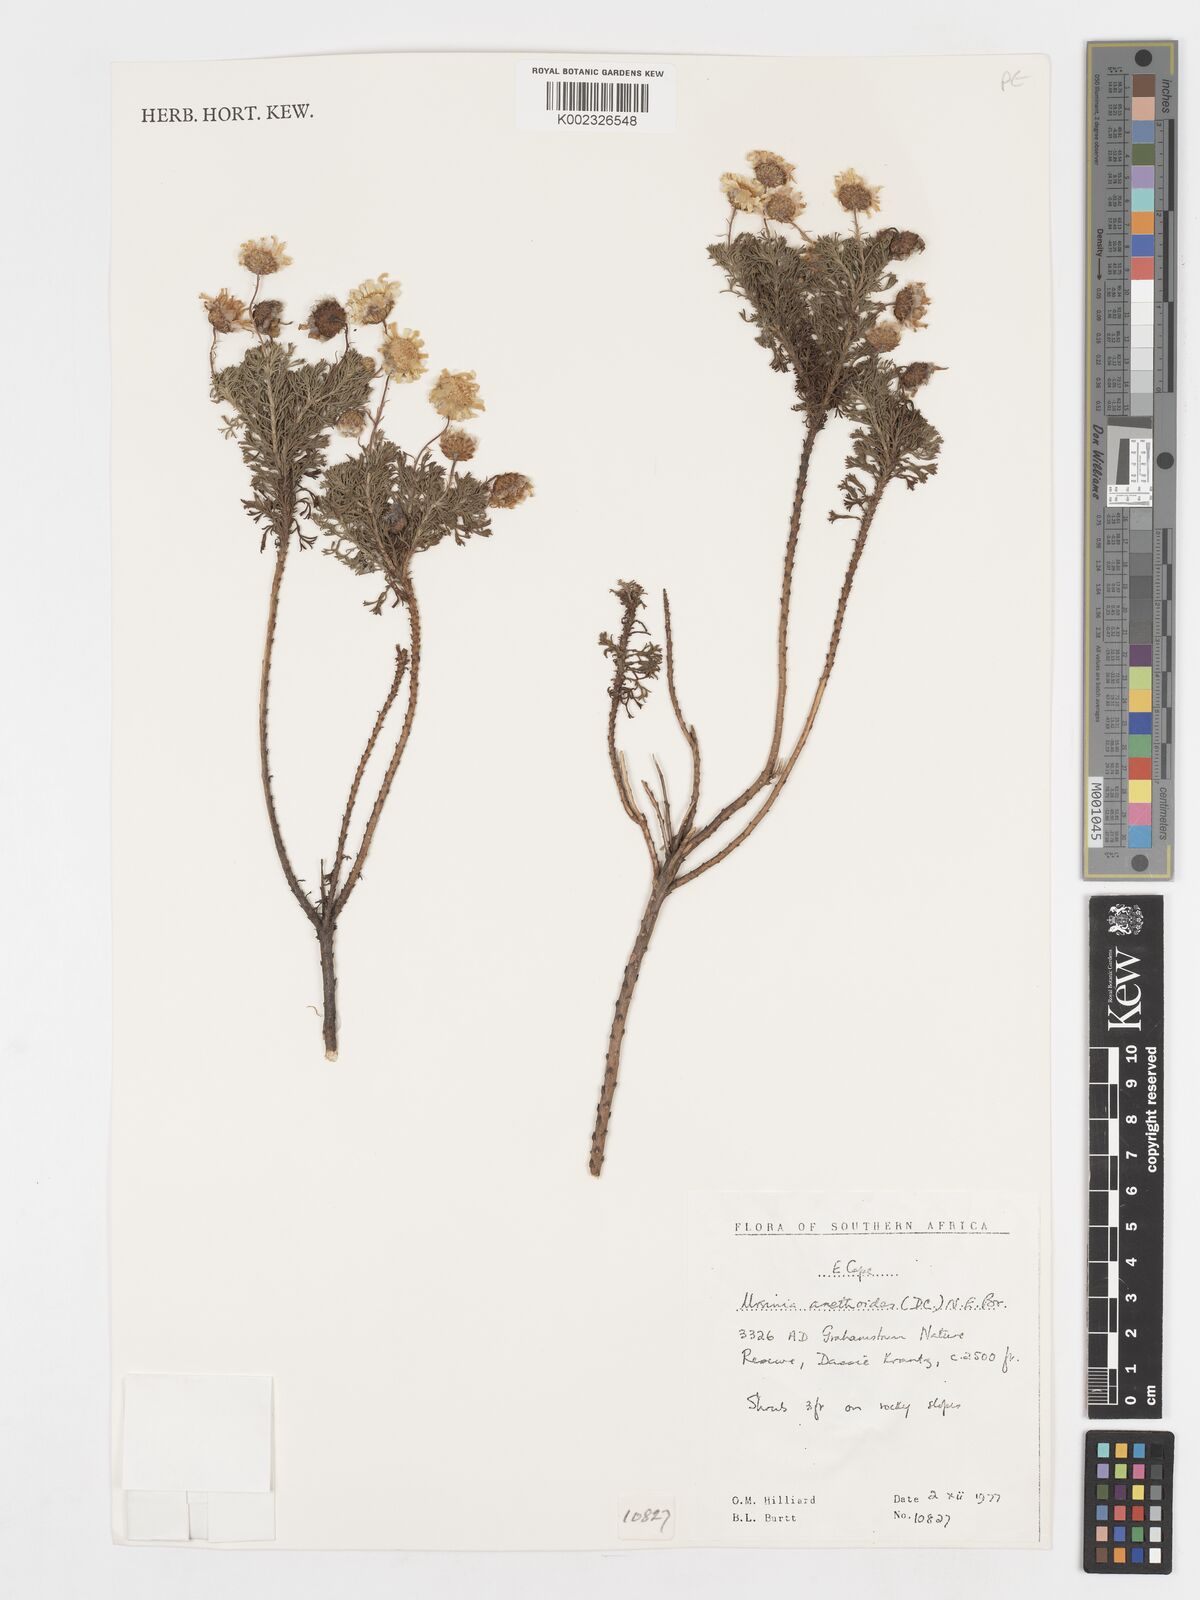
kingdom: Plantae
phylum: Tracheophyta
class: Magnoliopsida
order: Asterales
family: Asteraceae
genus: Ursinia
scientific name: Ursinia anethoides
